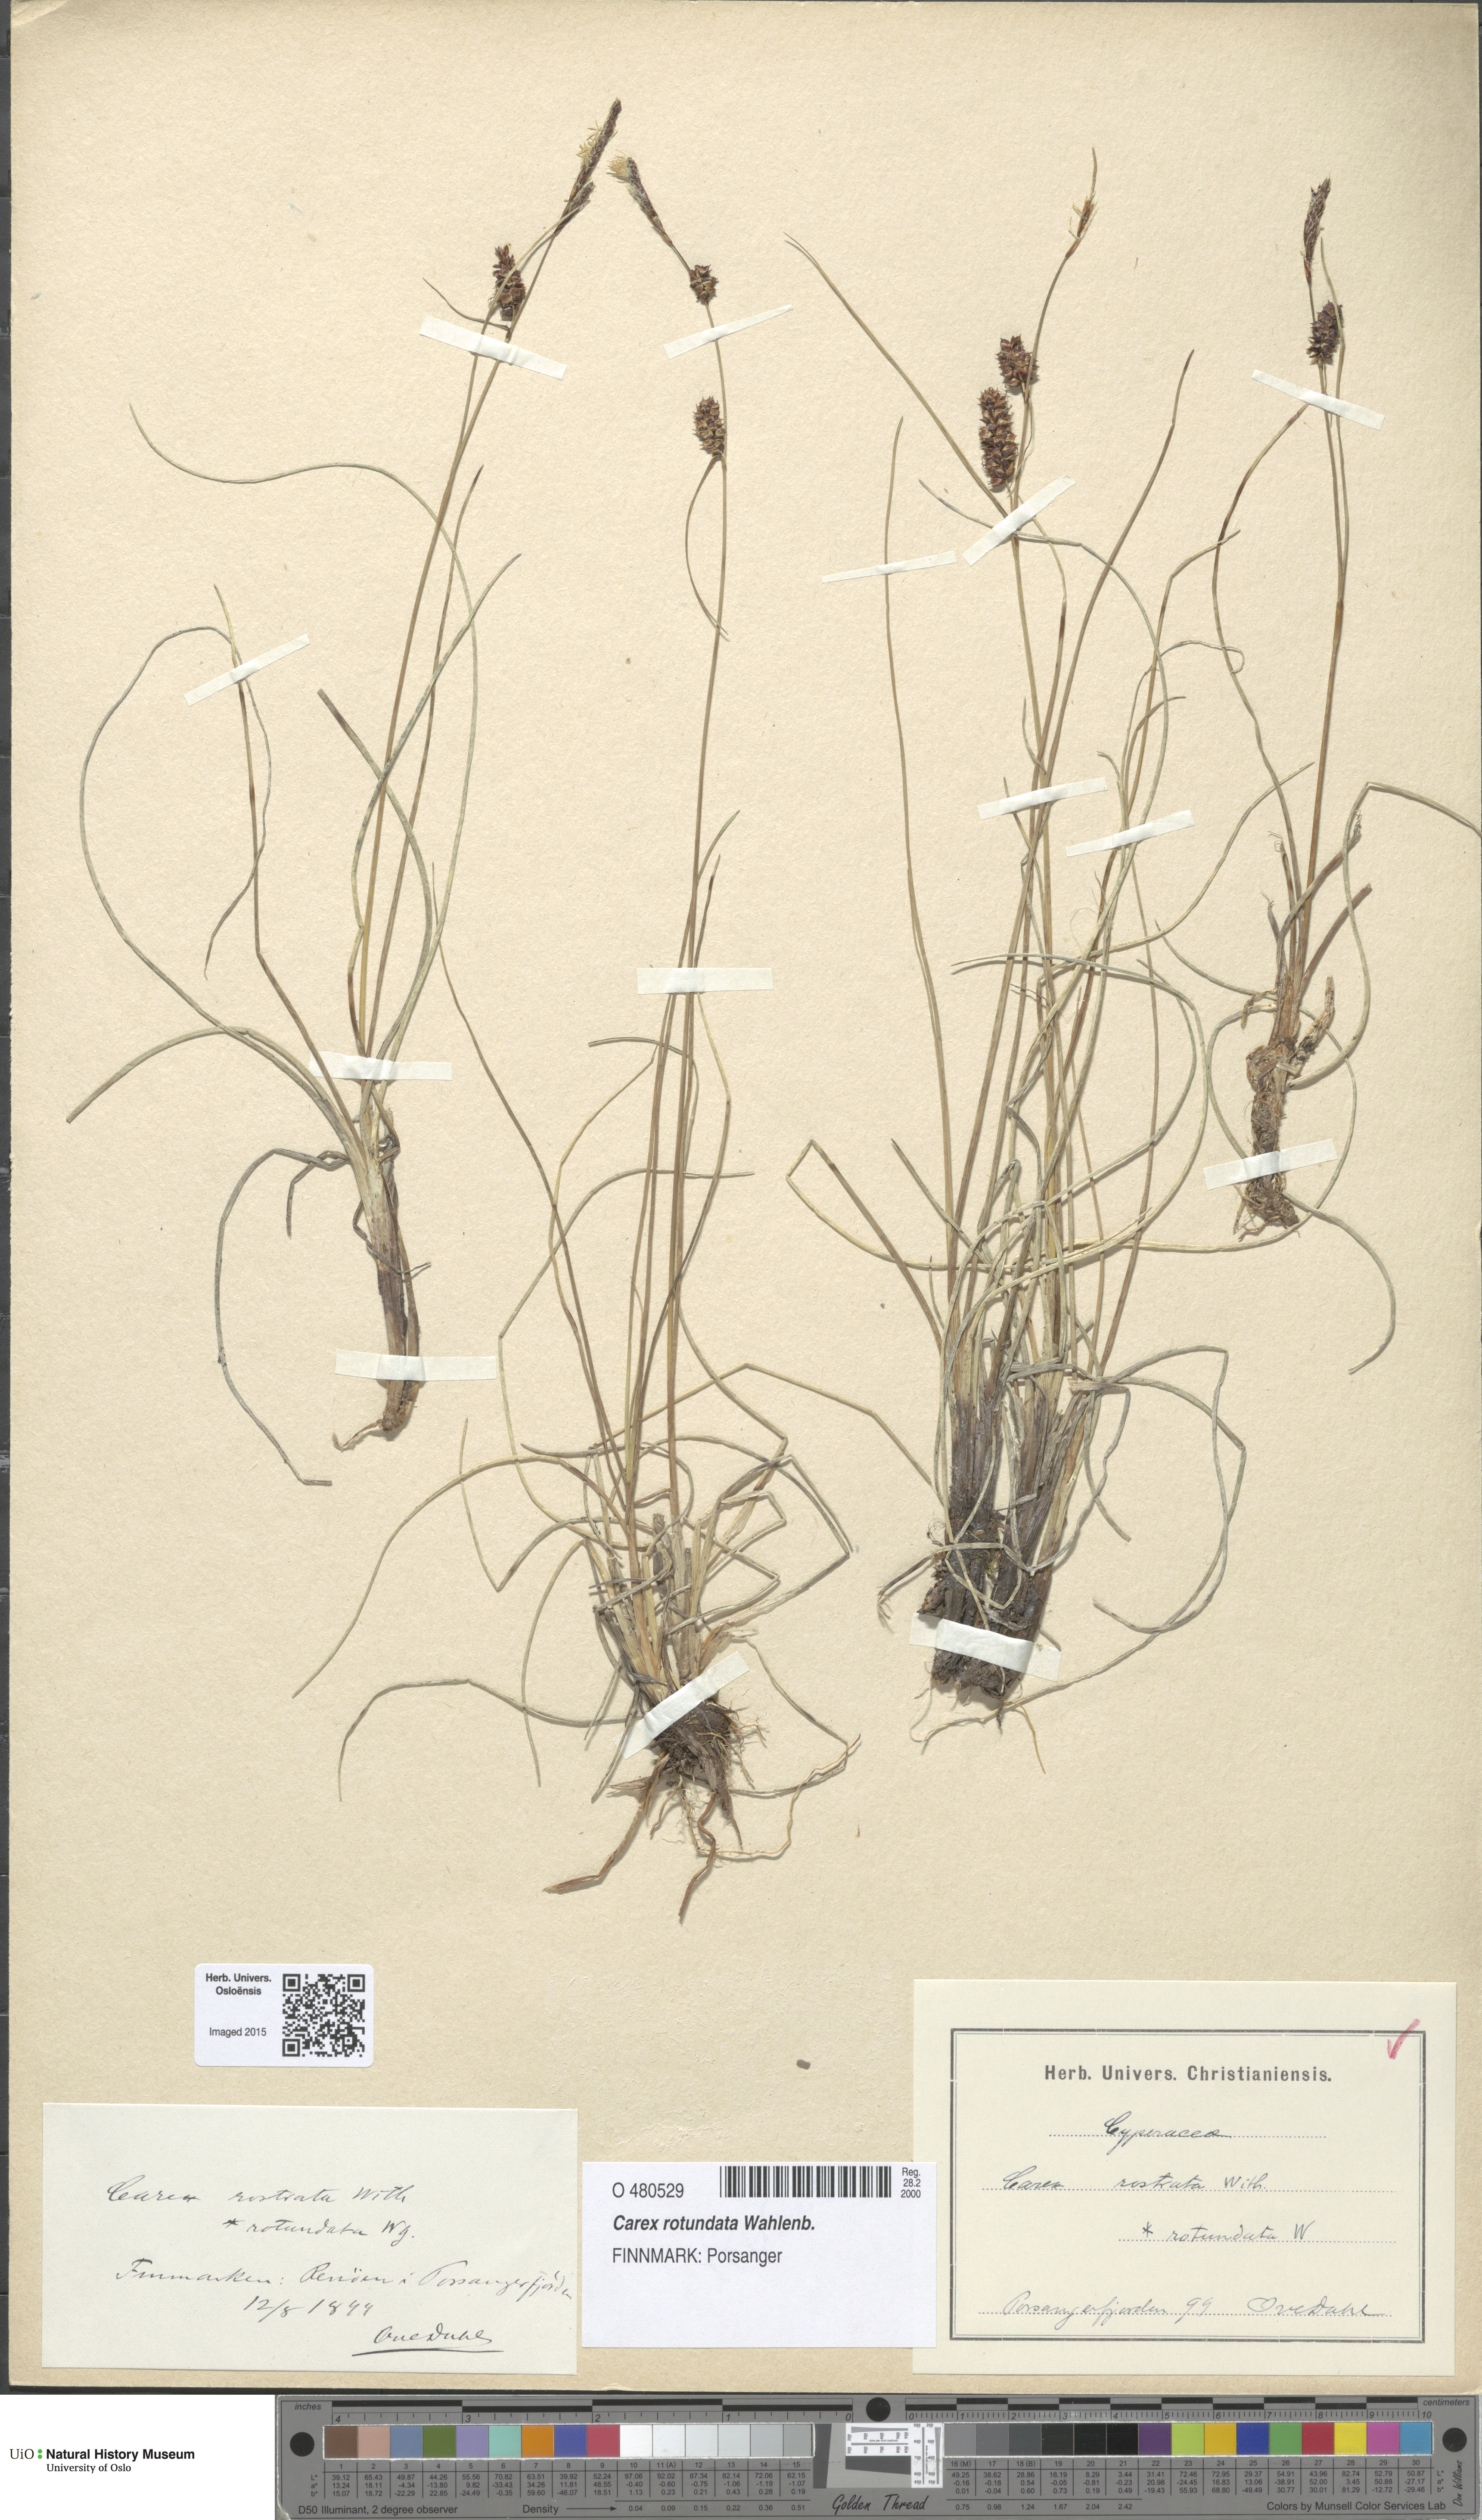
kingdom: Plantae
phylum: Tracheophyta
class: Liliopsida
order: Poales
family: Cyperaceae
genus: Carex
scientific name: Carex rotundata
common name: Round-fruited sedge
